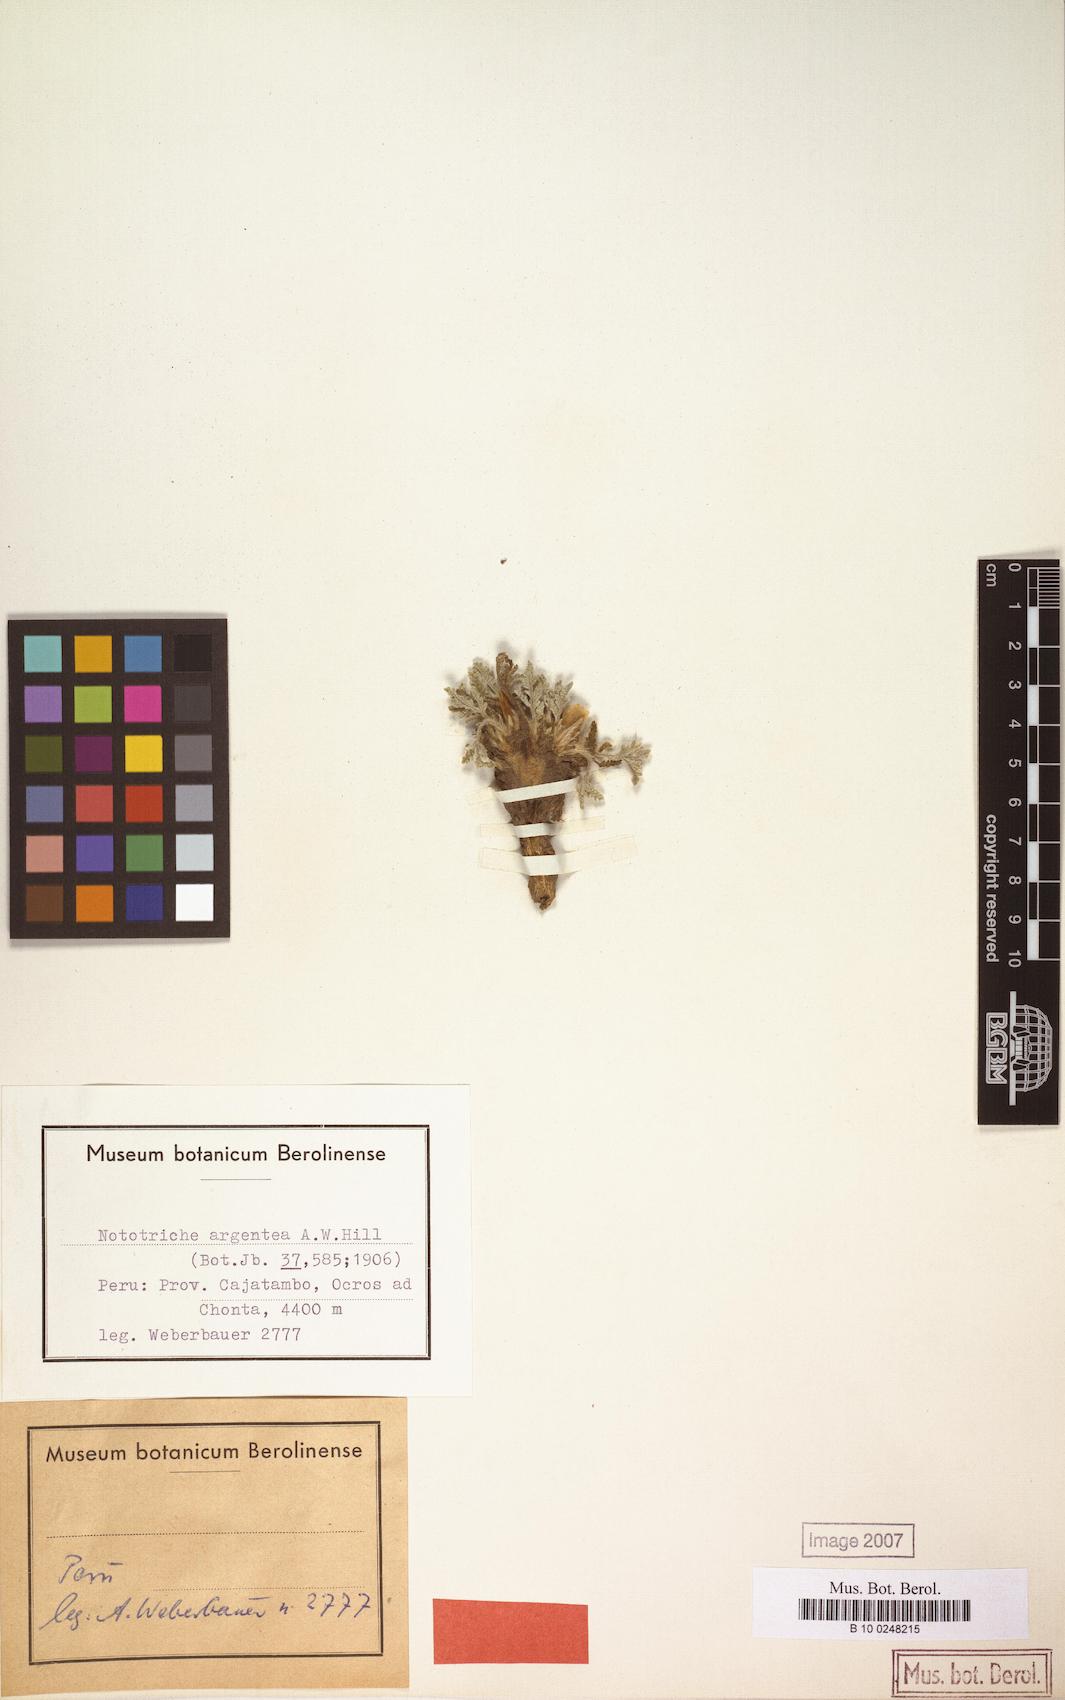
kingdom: Plantae
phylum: Tracheophyta
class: Magnoliopsida
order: Malvales
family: Malvaceae
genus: Nototriche
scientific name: Nototriche argentea
